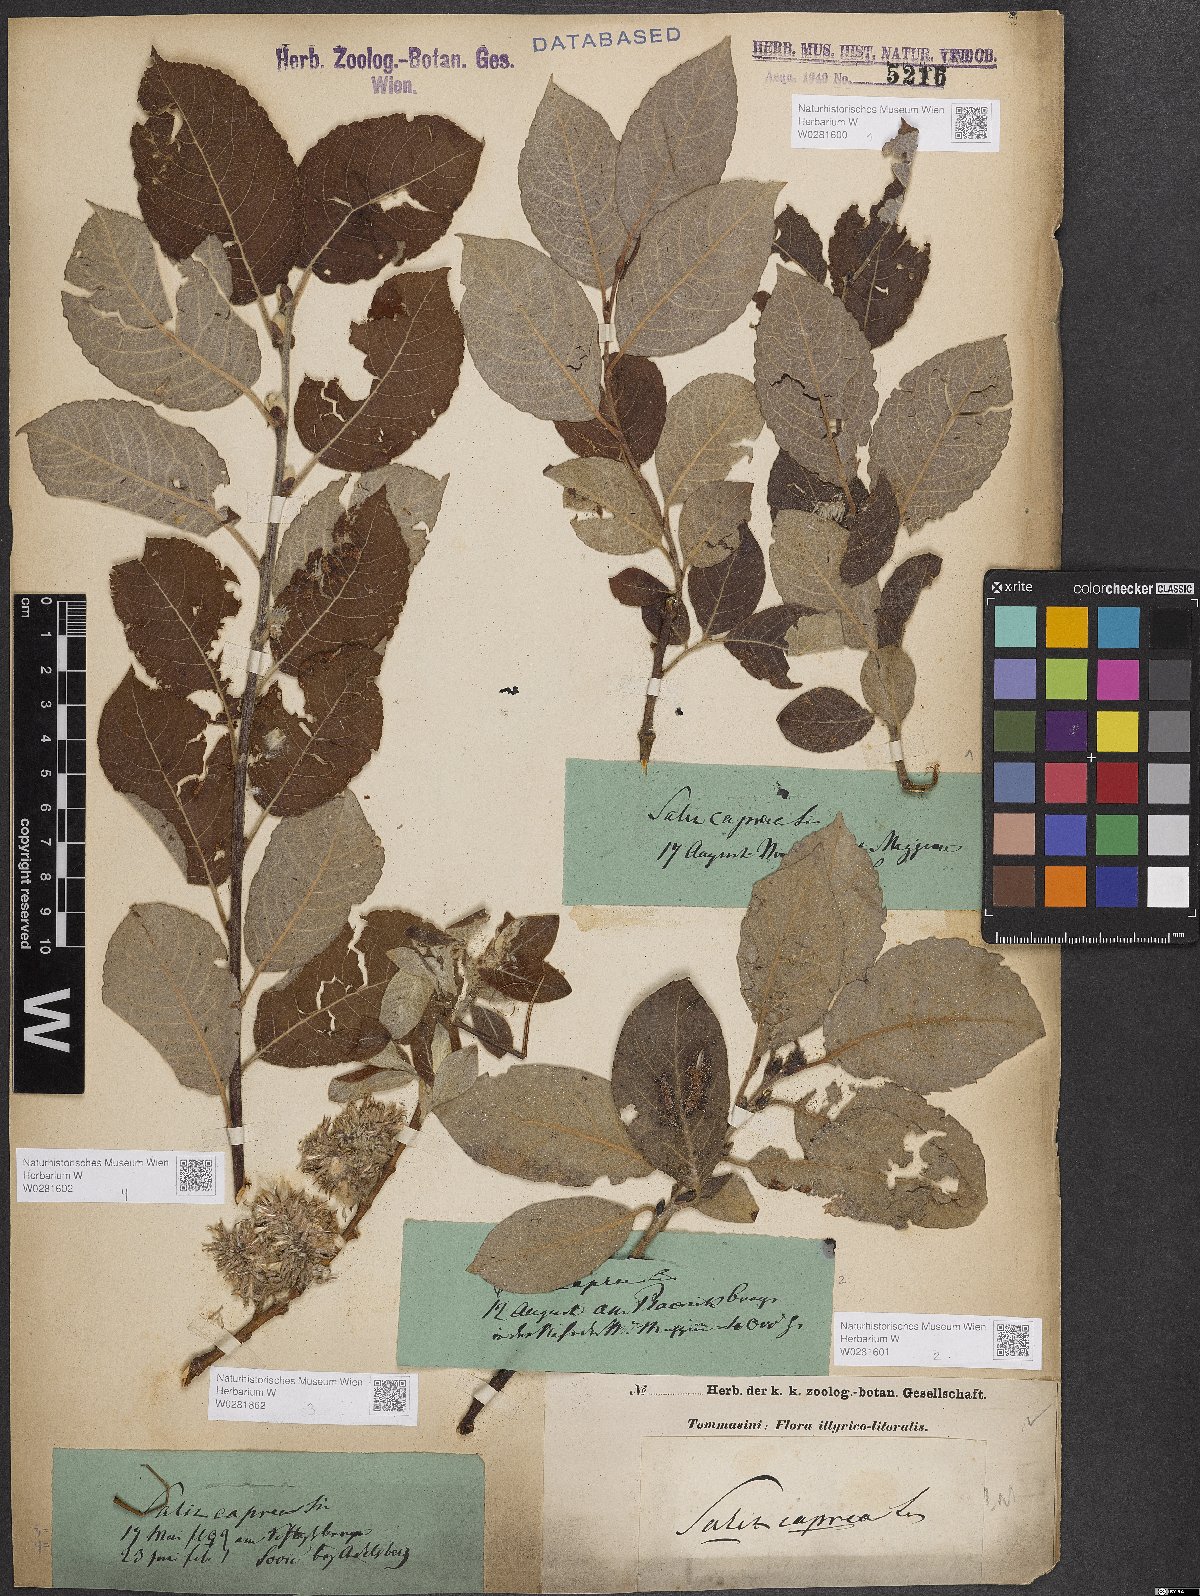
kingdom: Plantae
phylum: Tracheophyta
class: Magnoliopsida
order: Malpighiales
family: Salicaceae
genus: Salix
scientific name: Salix caprea
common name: Goat willow
